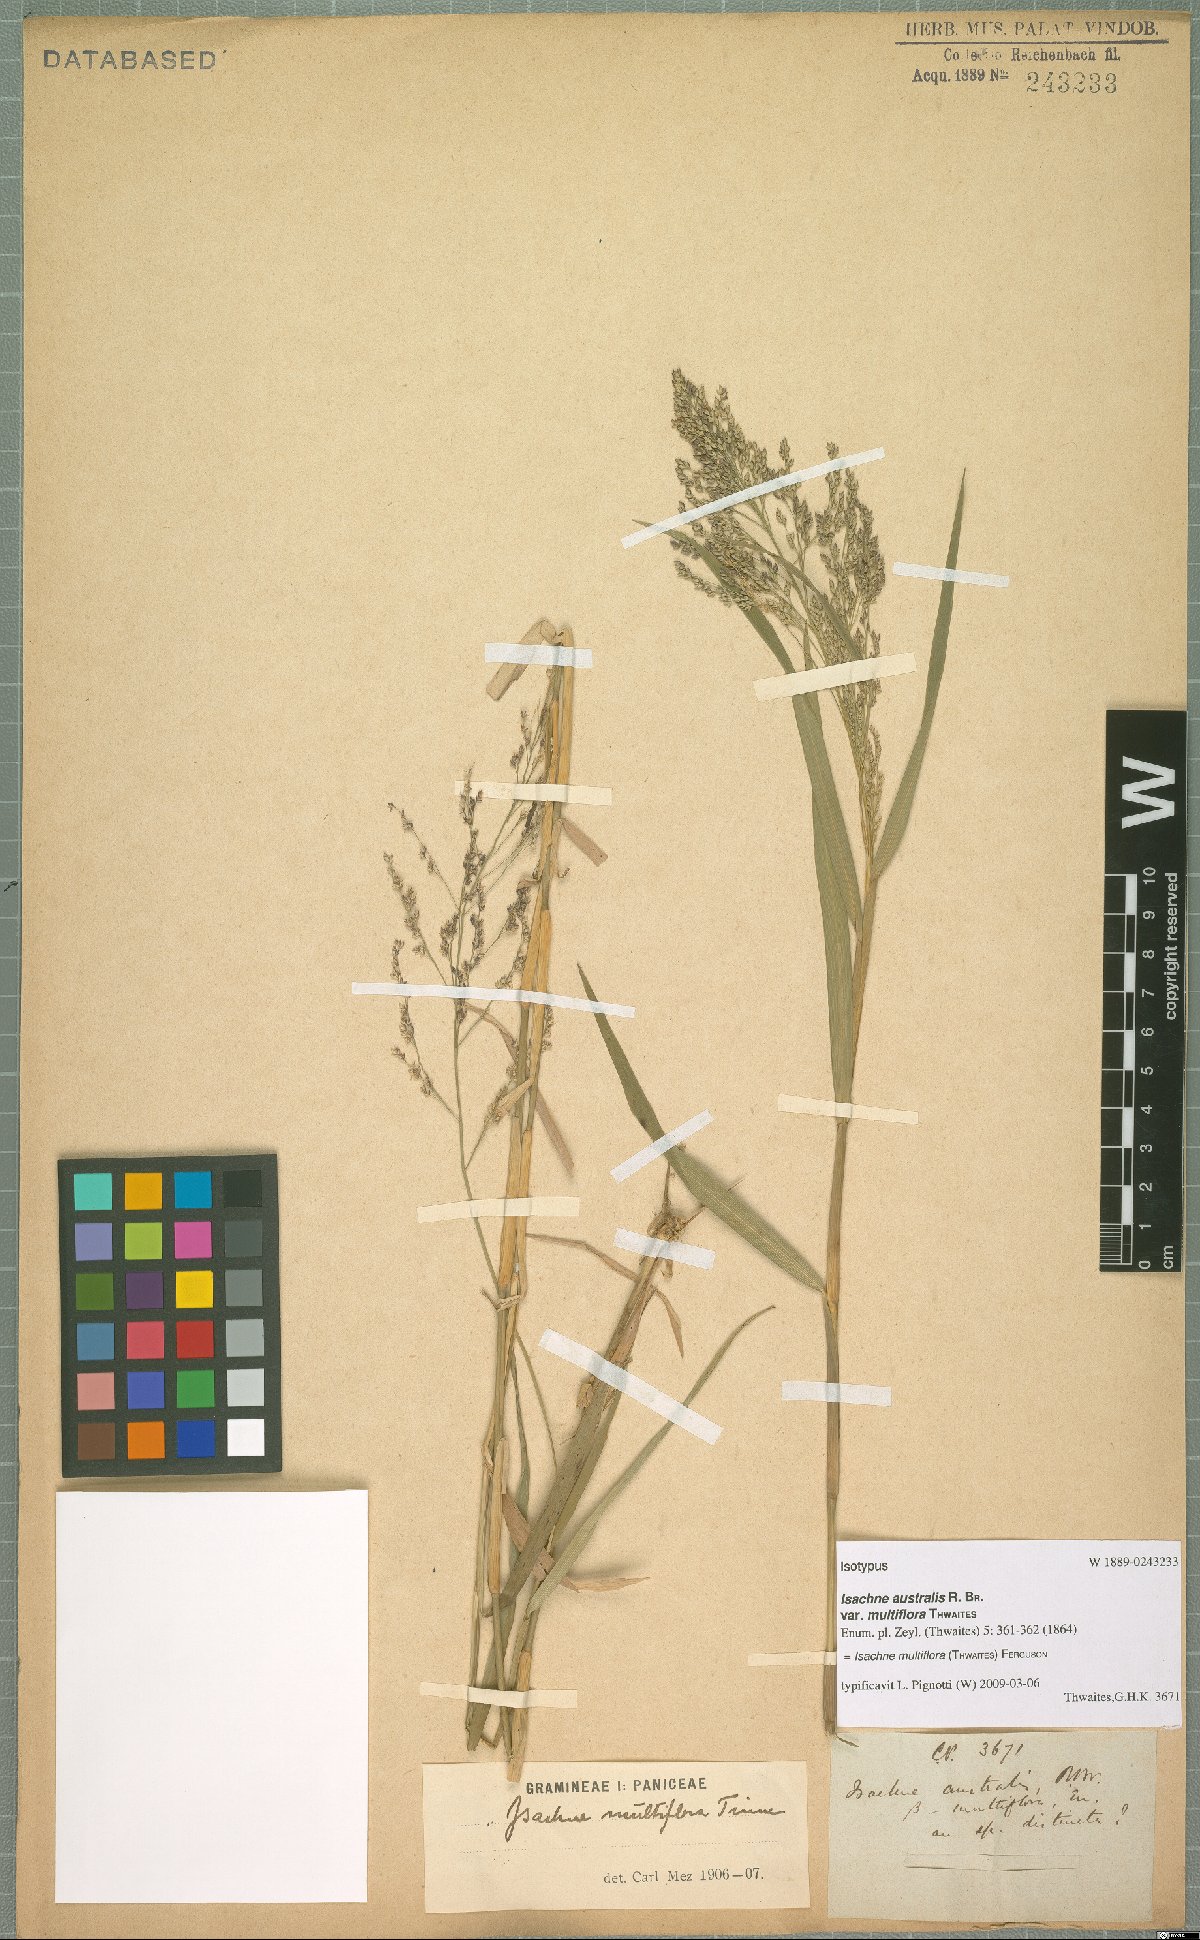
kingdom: Plantae
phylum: Tracheophyta
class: Liliopsida
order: Poales
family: Poaceae
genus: Isachne
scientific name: Isachne multiflora
